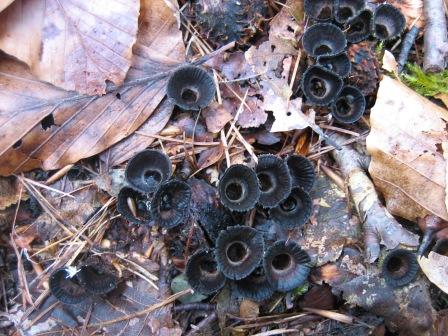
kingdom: Fungi
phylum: Basidiomycota
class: Agaricomycetes
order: Agaricales
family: Agaricaceae
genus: Cyathus
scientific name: Cyathus striatus
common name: stribet redesvamp
